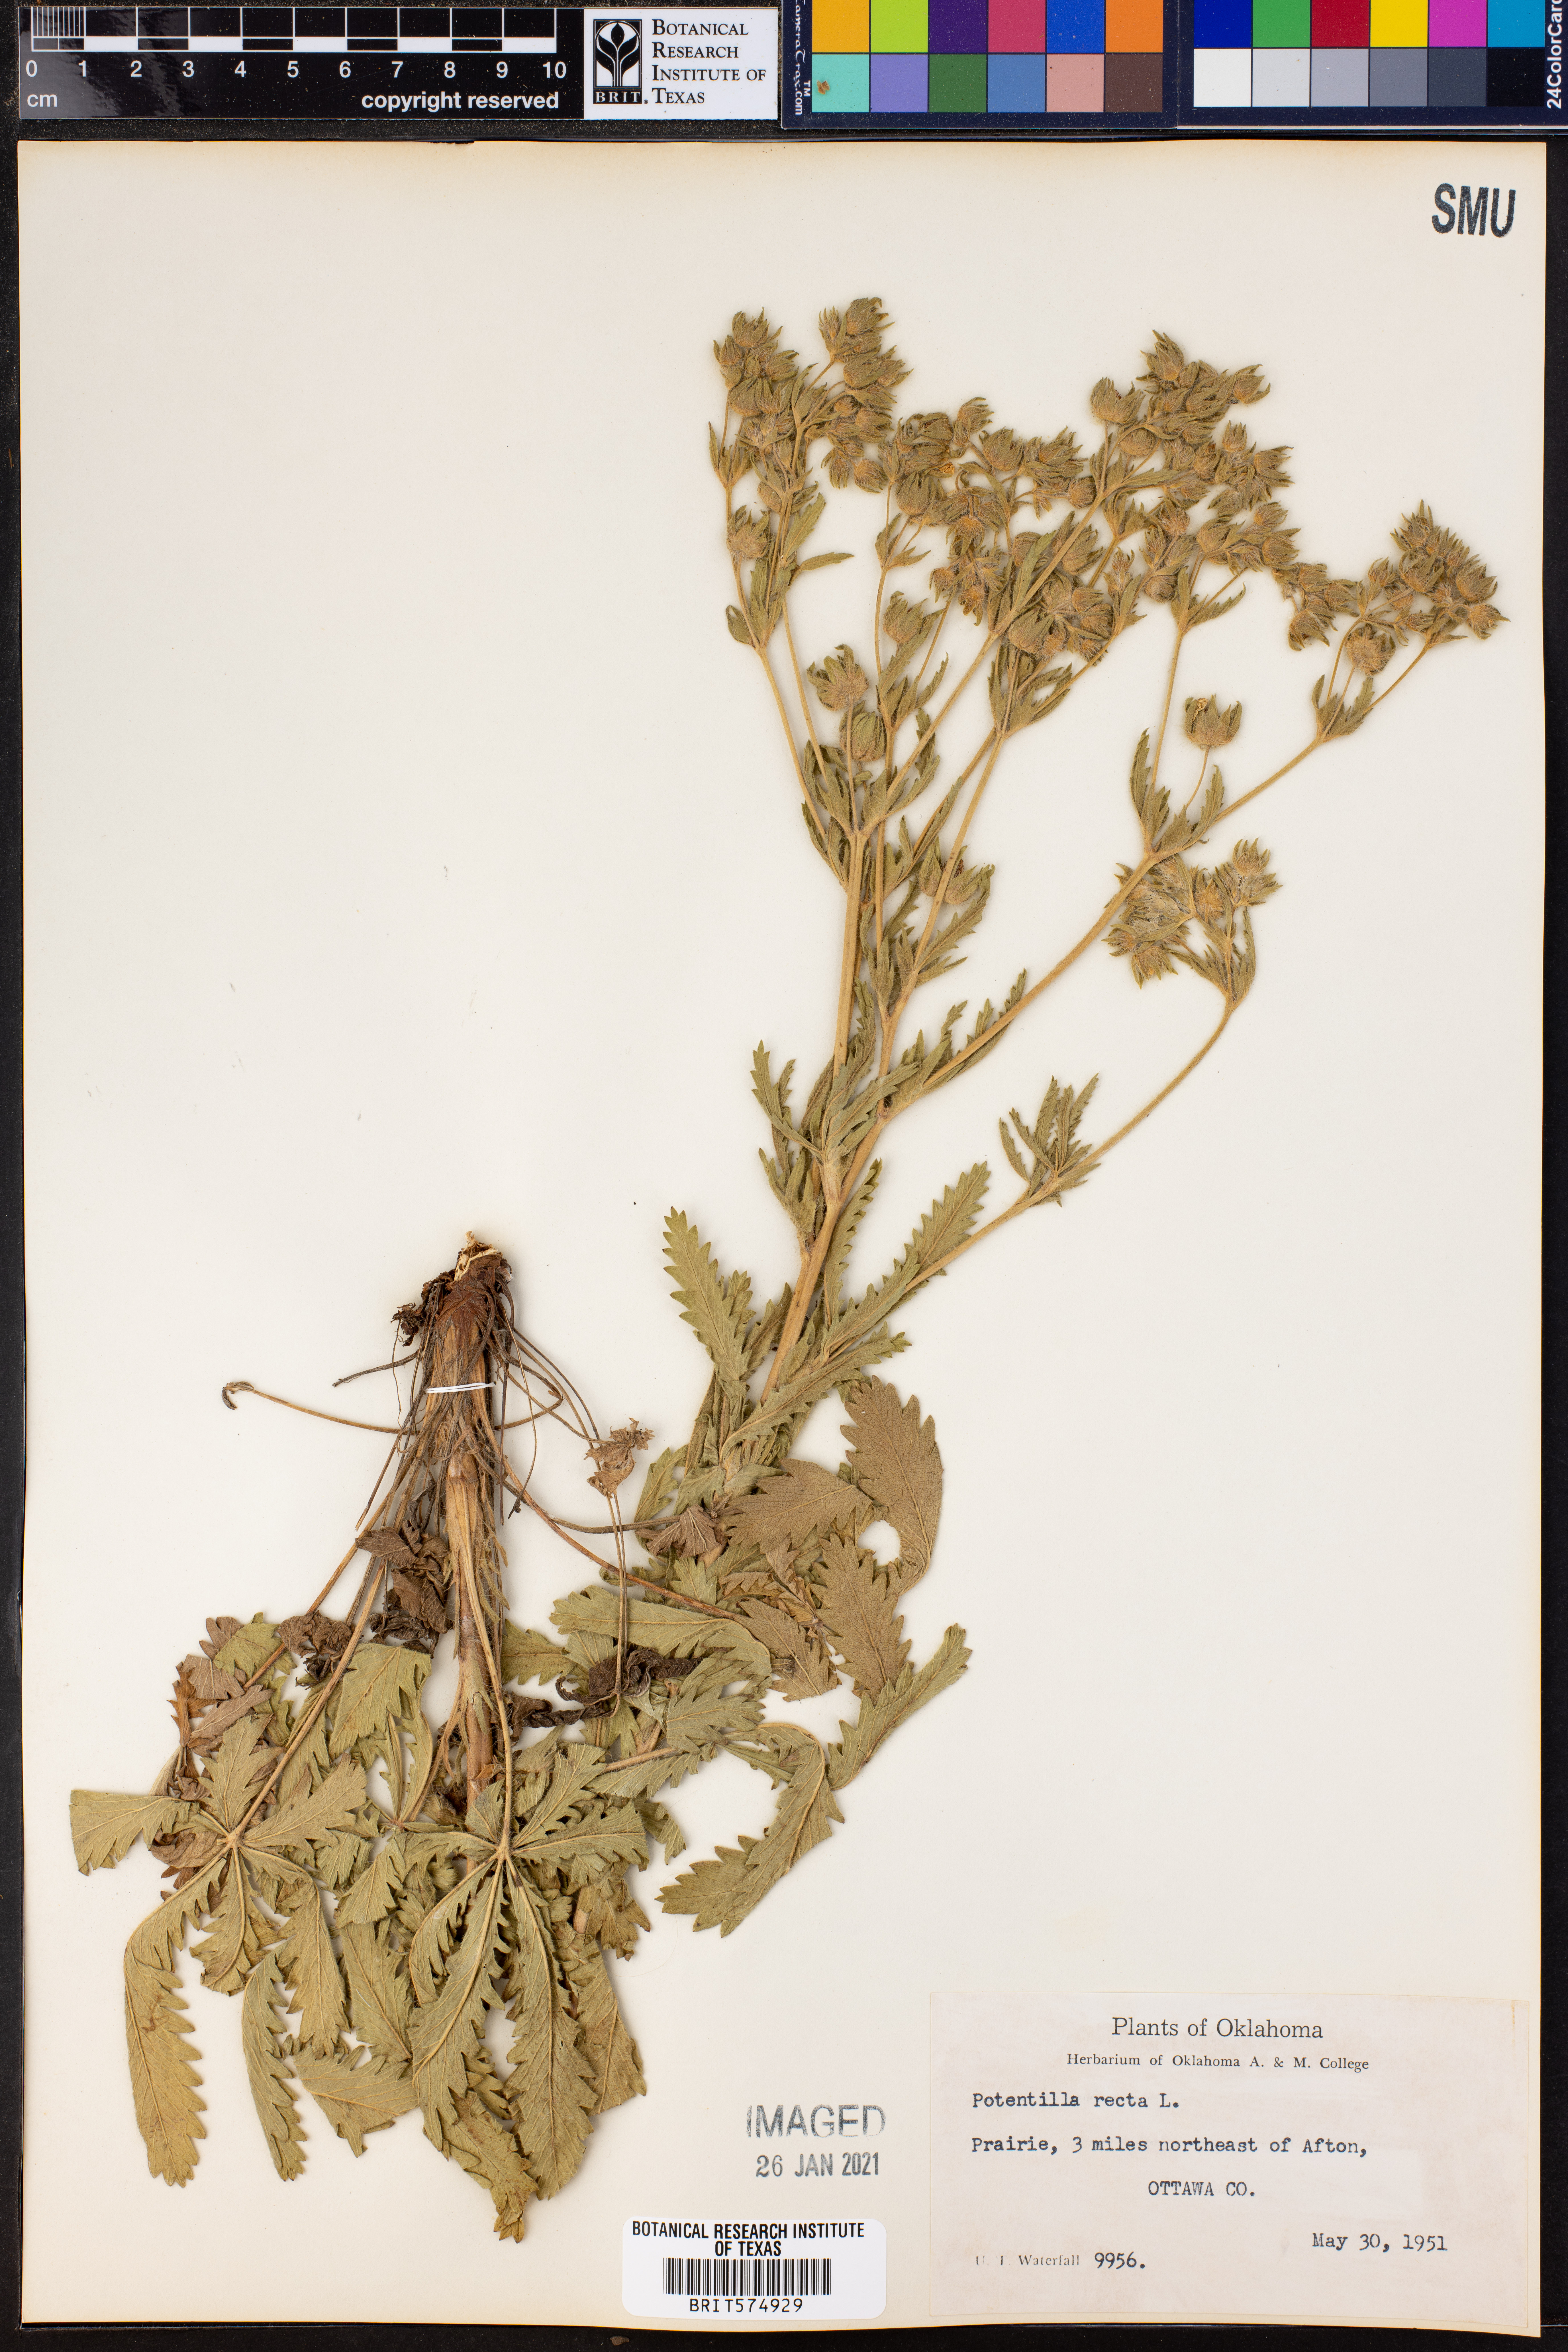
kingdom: Plantae
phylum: Tracheophyta
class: Magnoliopsida
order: Rosales
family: Rosaceae
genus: Potentilla
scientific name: Potentilla recta
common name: Sulphur cinquefoil
